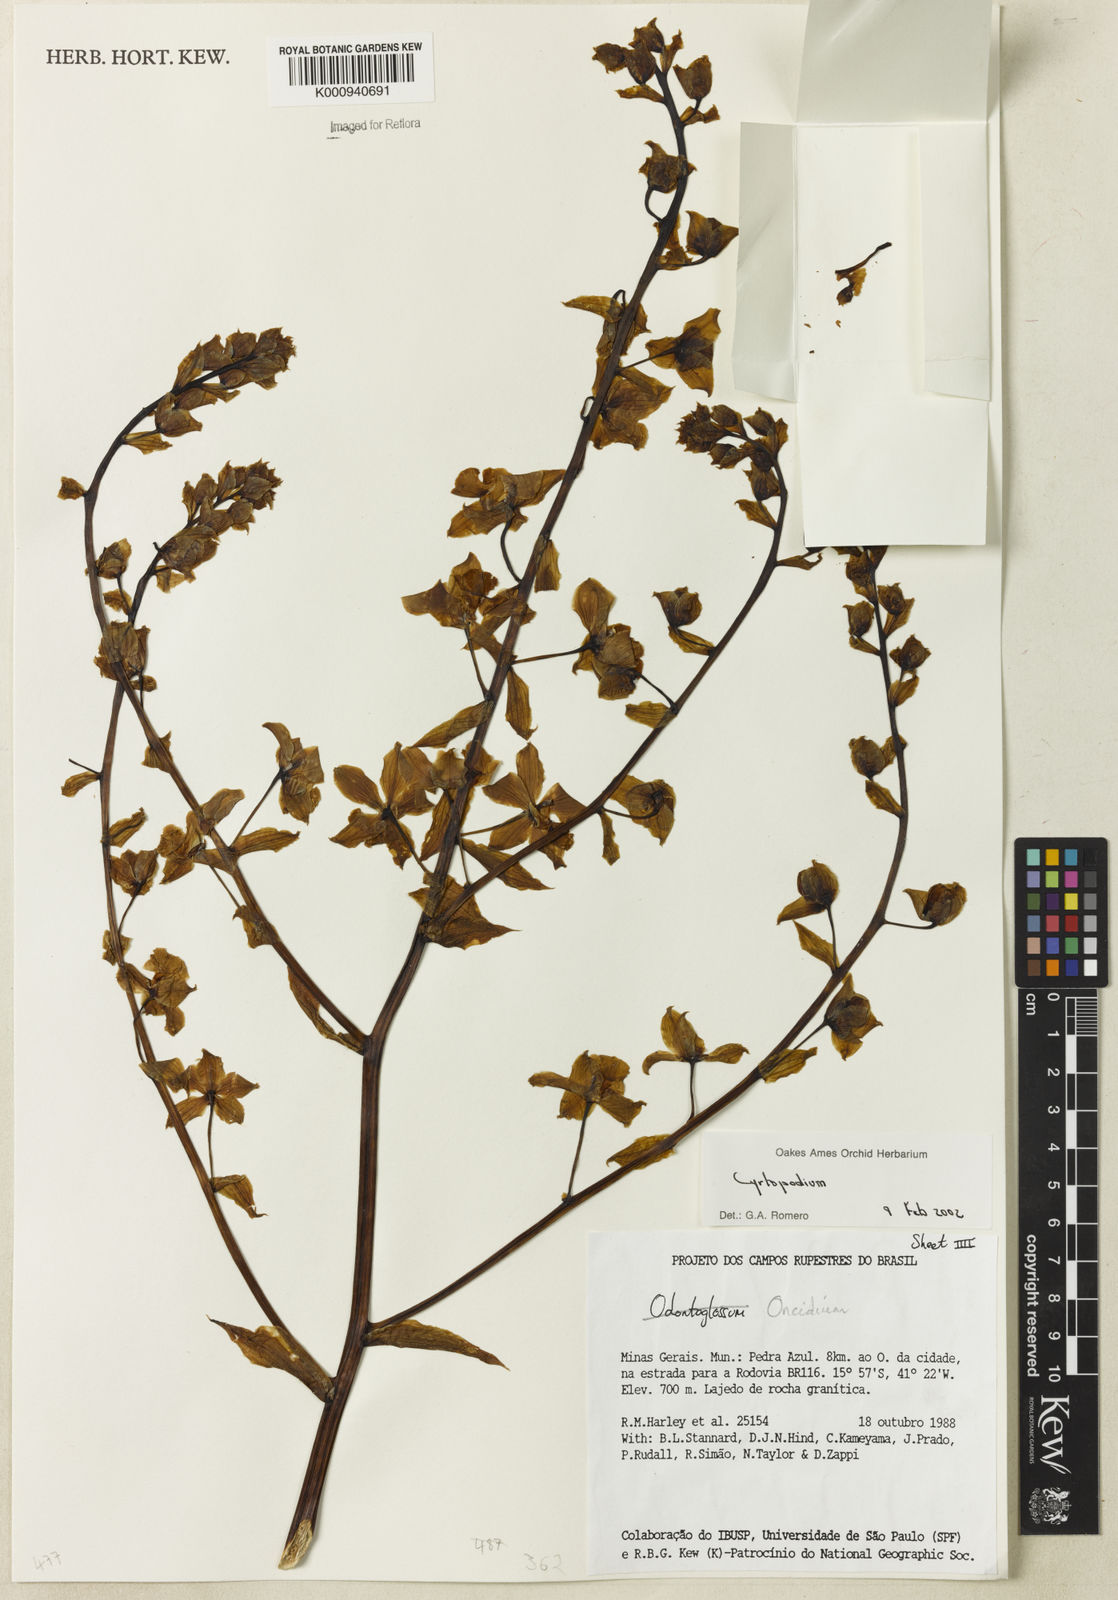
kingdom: Plantae
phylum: Tracheophyta
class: Liliopsida
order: Asparagales
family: Orchidaceae
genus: Cyrtopodium
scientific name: Cyrtopodium
